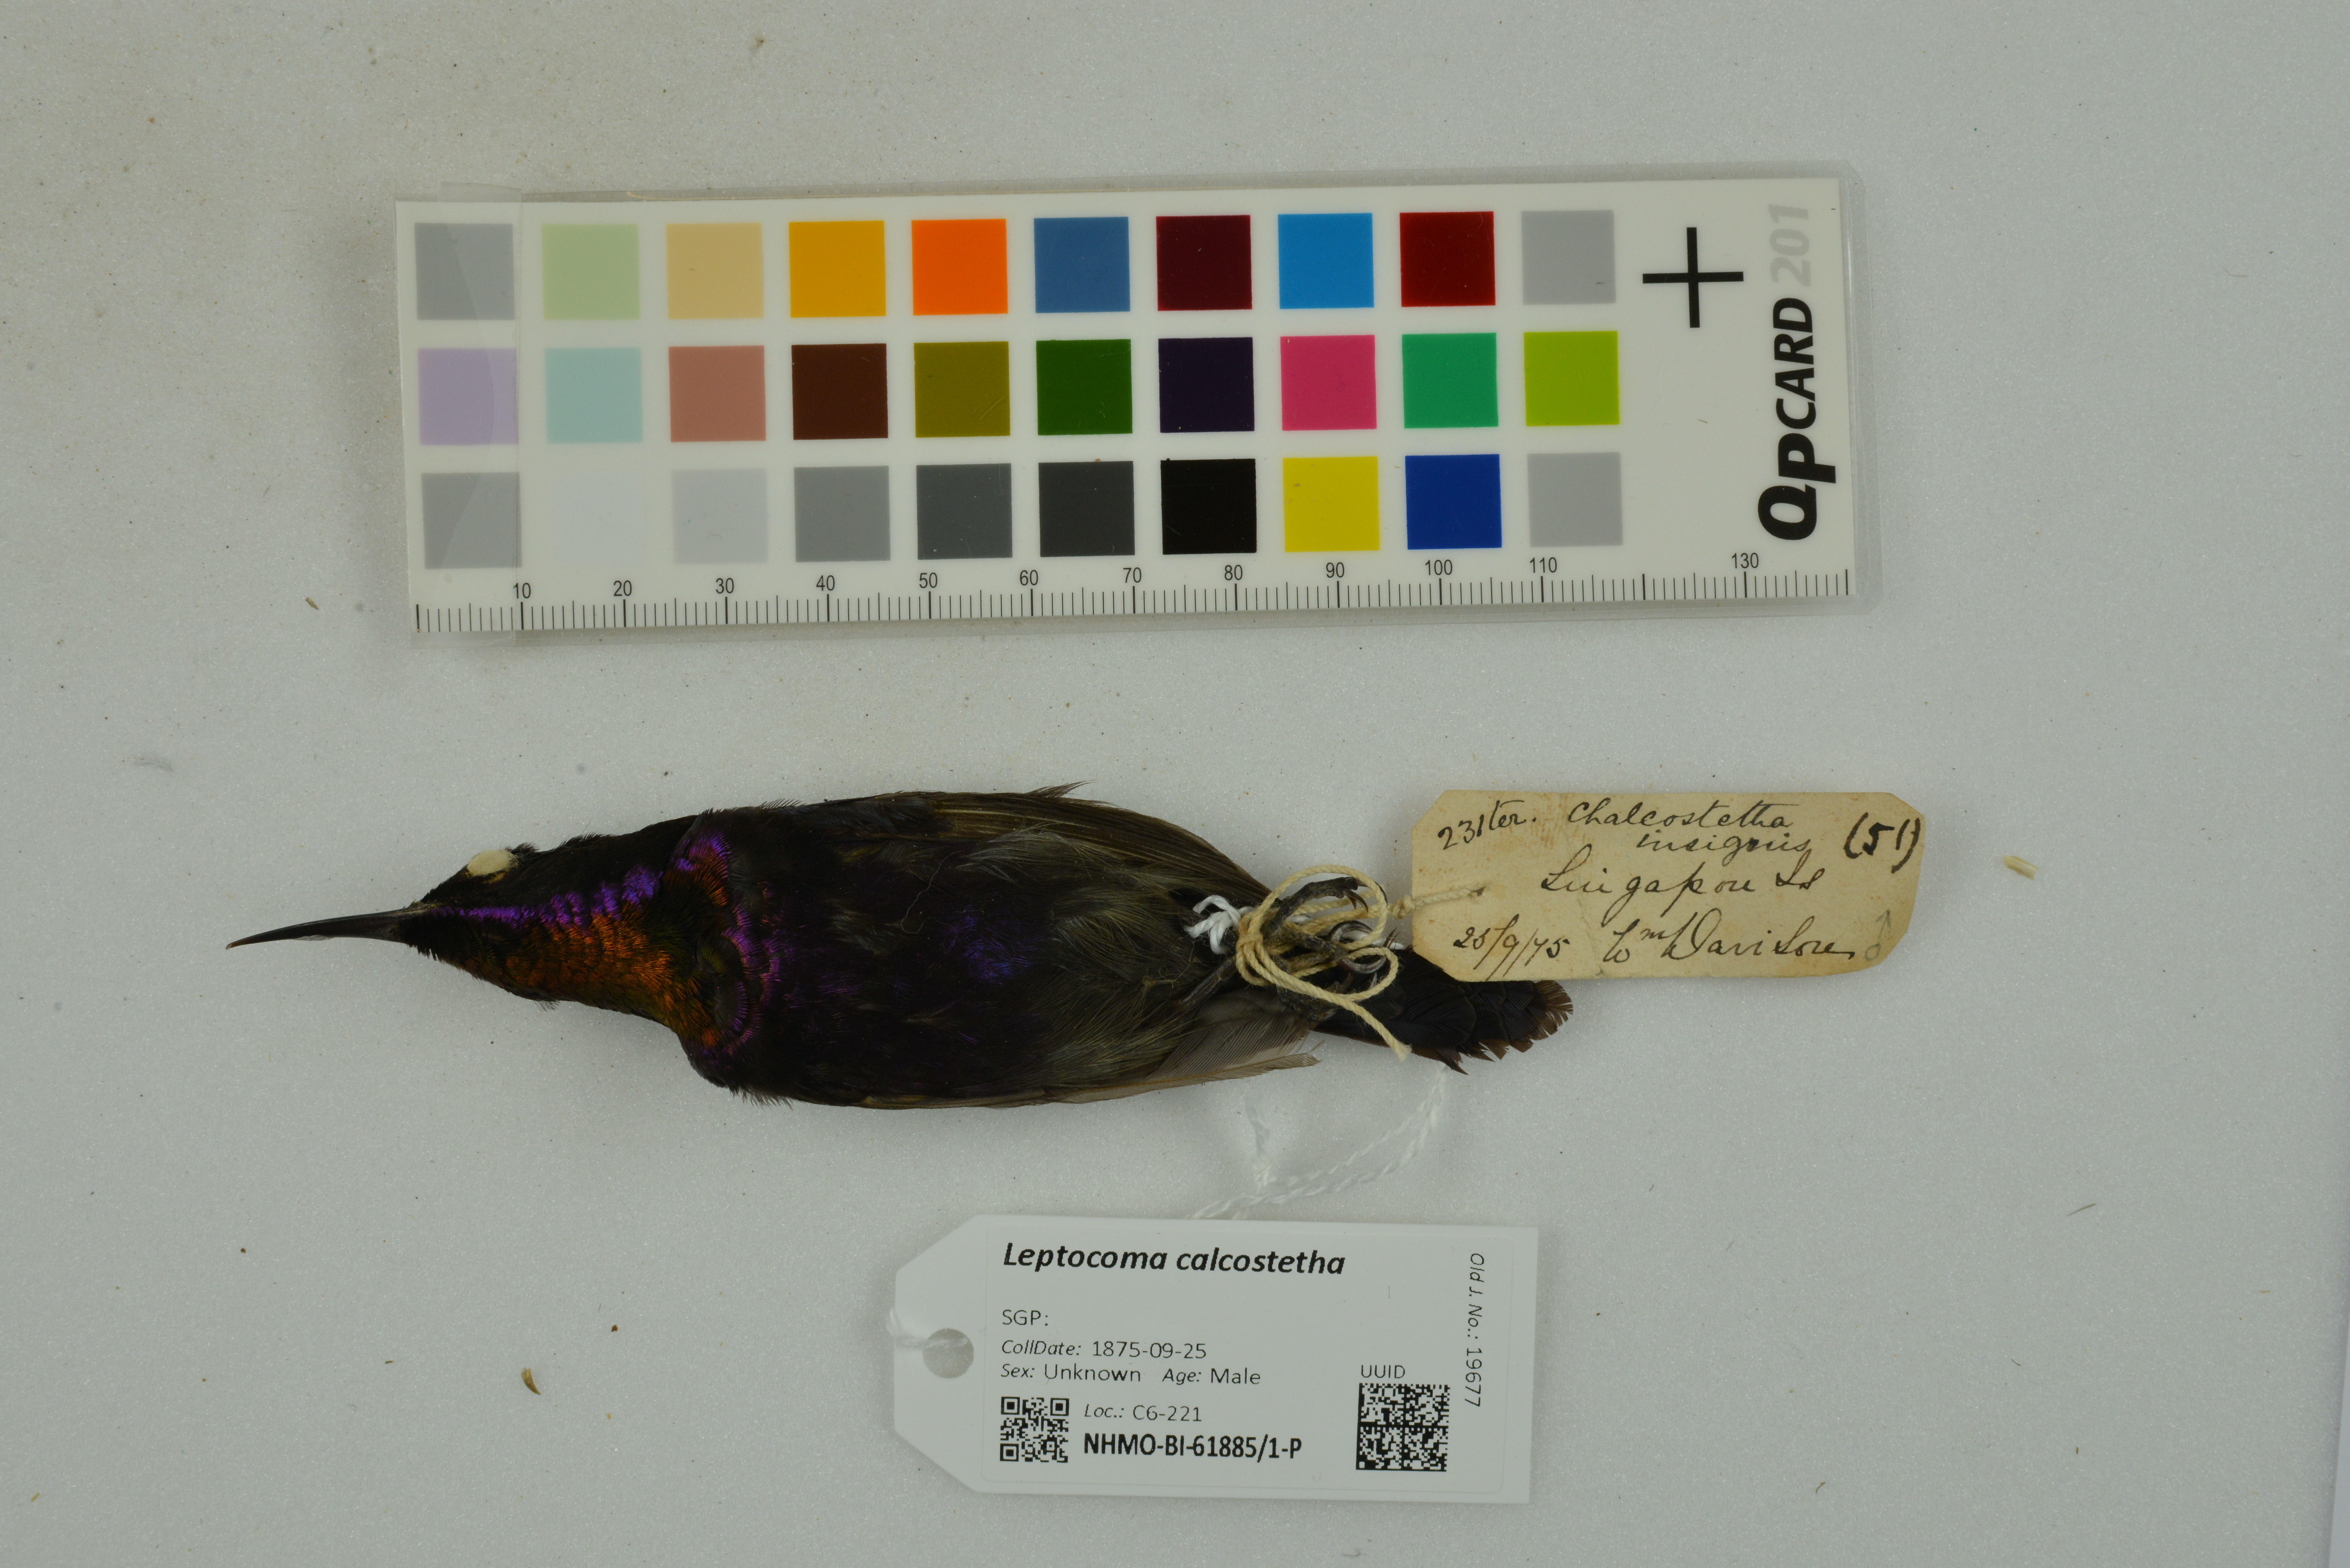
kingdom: Animalia
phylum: Chordata
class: Aves
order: Passeriformes
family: Nectariniidae
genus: Leptocoma
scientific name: Leptocoma calcostetha
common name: Copper-throated sunbird
